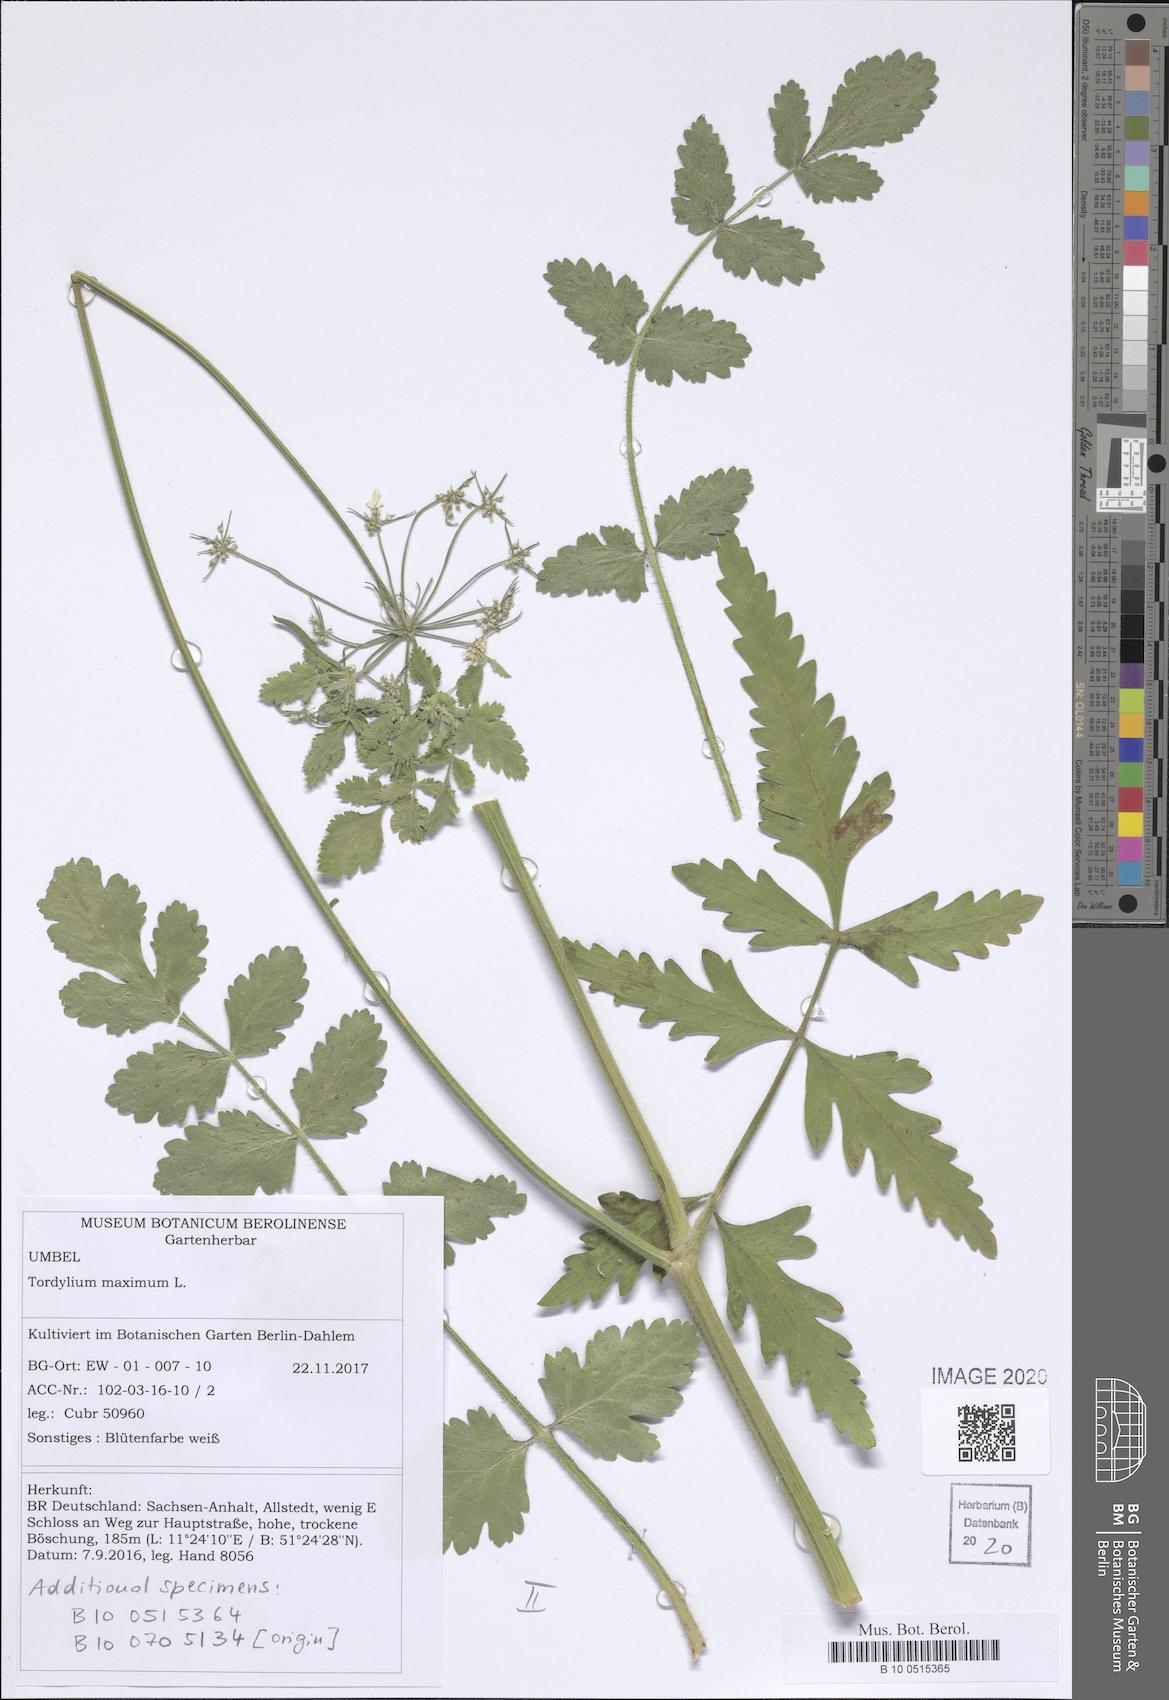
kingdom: Plantae
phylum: Tracheophyta
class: Magnoliopsida
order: Apiales
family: Apiaceae
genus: Tordylium
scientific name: Tordylium maximum
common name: Hartwort
